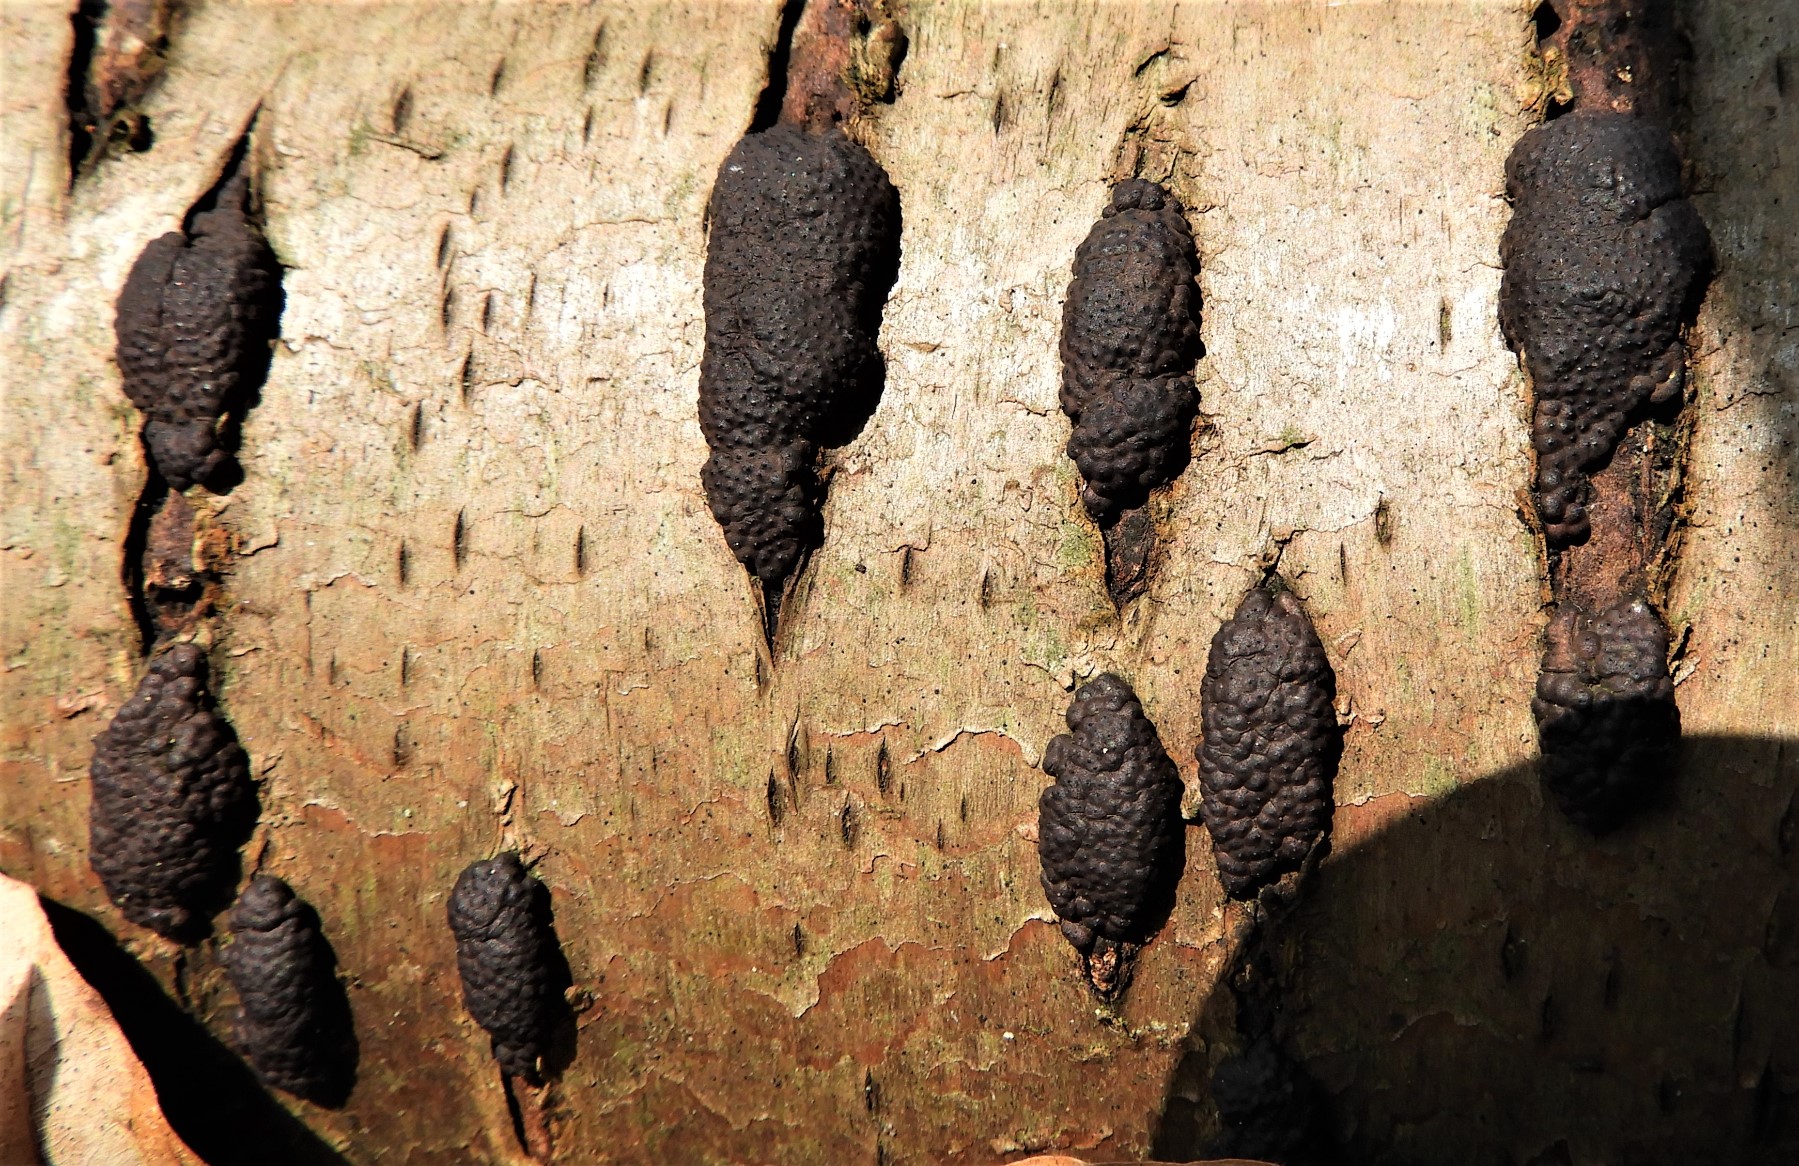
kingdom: Fungi
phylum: Ascomycota
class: Sordariomycetes
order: Xylariales
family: Hypoxylaceae
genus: Jackrogersella
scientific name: Jackrogersella multiformis
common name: foranderlig kulbær
